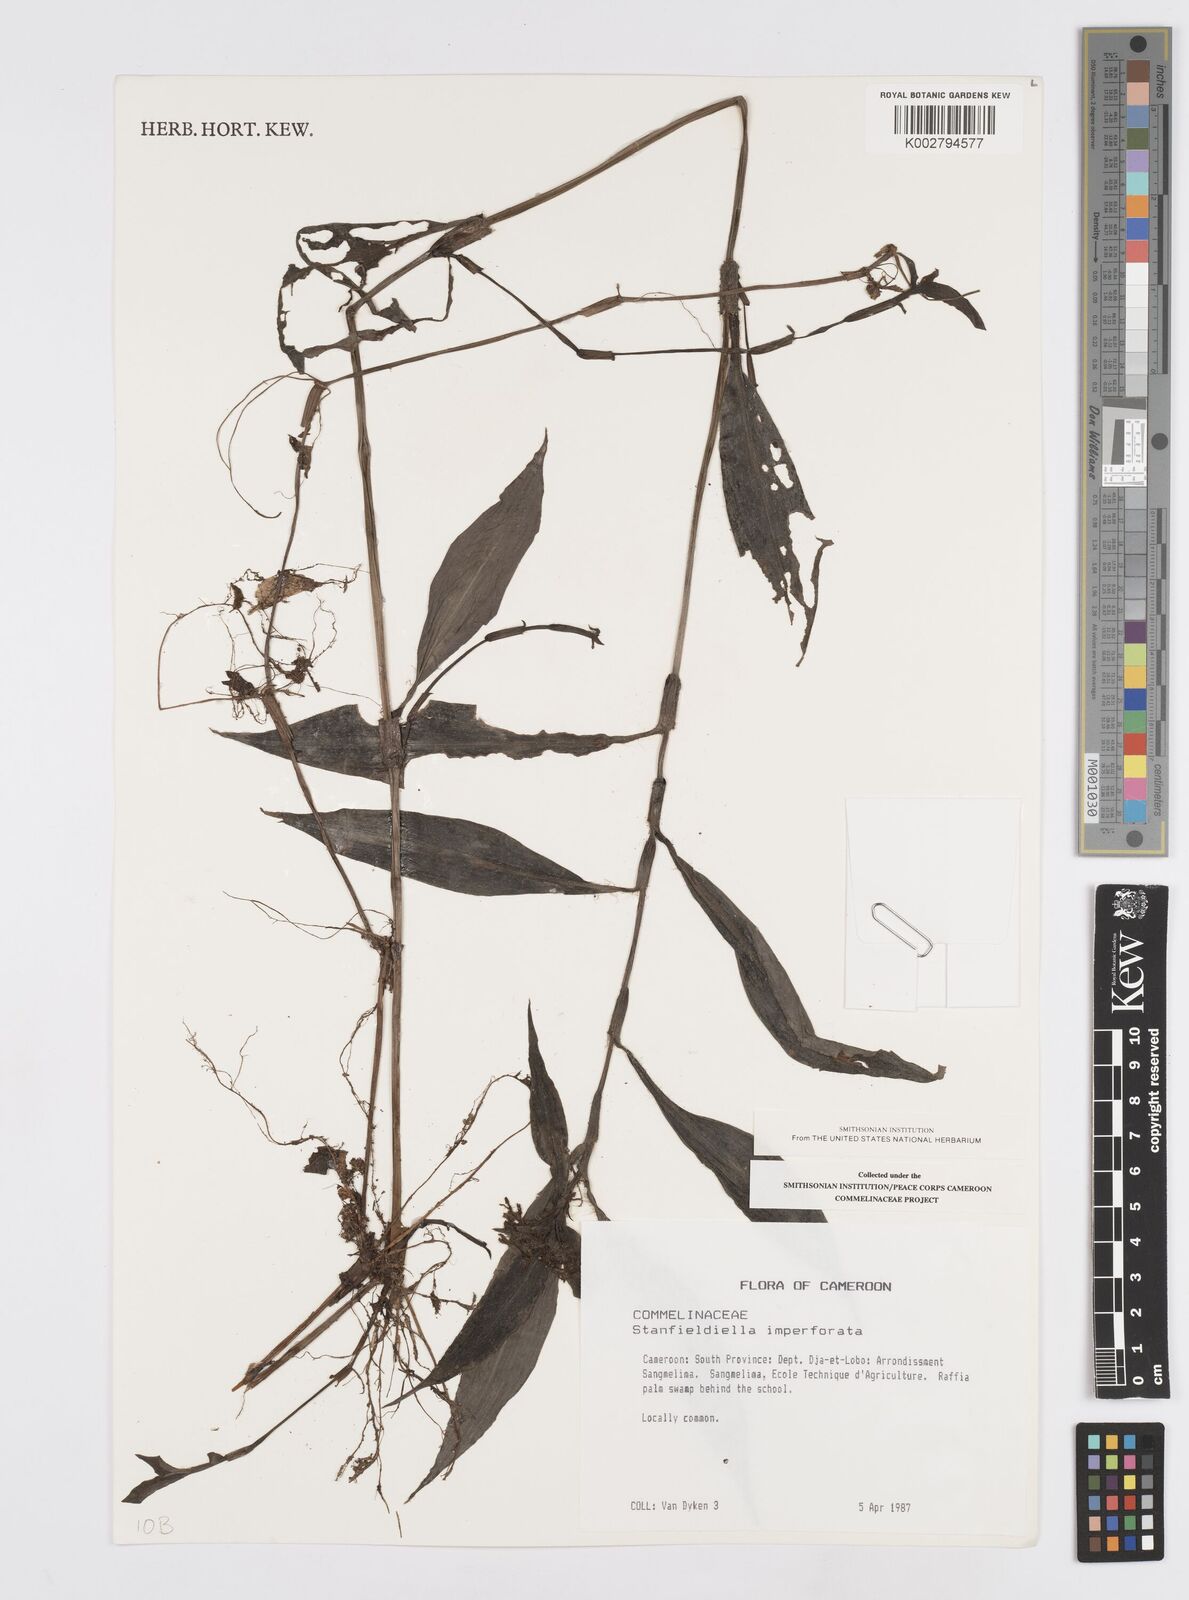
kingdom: Plantae
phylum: Tracheophyta
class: Liliopsida
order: Commelinales
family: Commelinaceae
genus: Stanfieldiella
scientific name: Stanfieldiella imperforata
